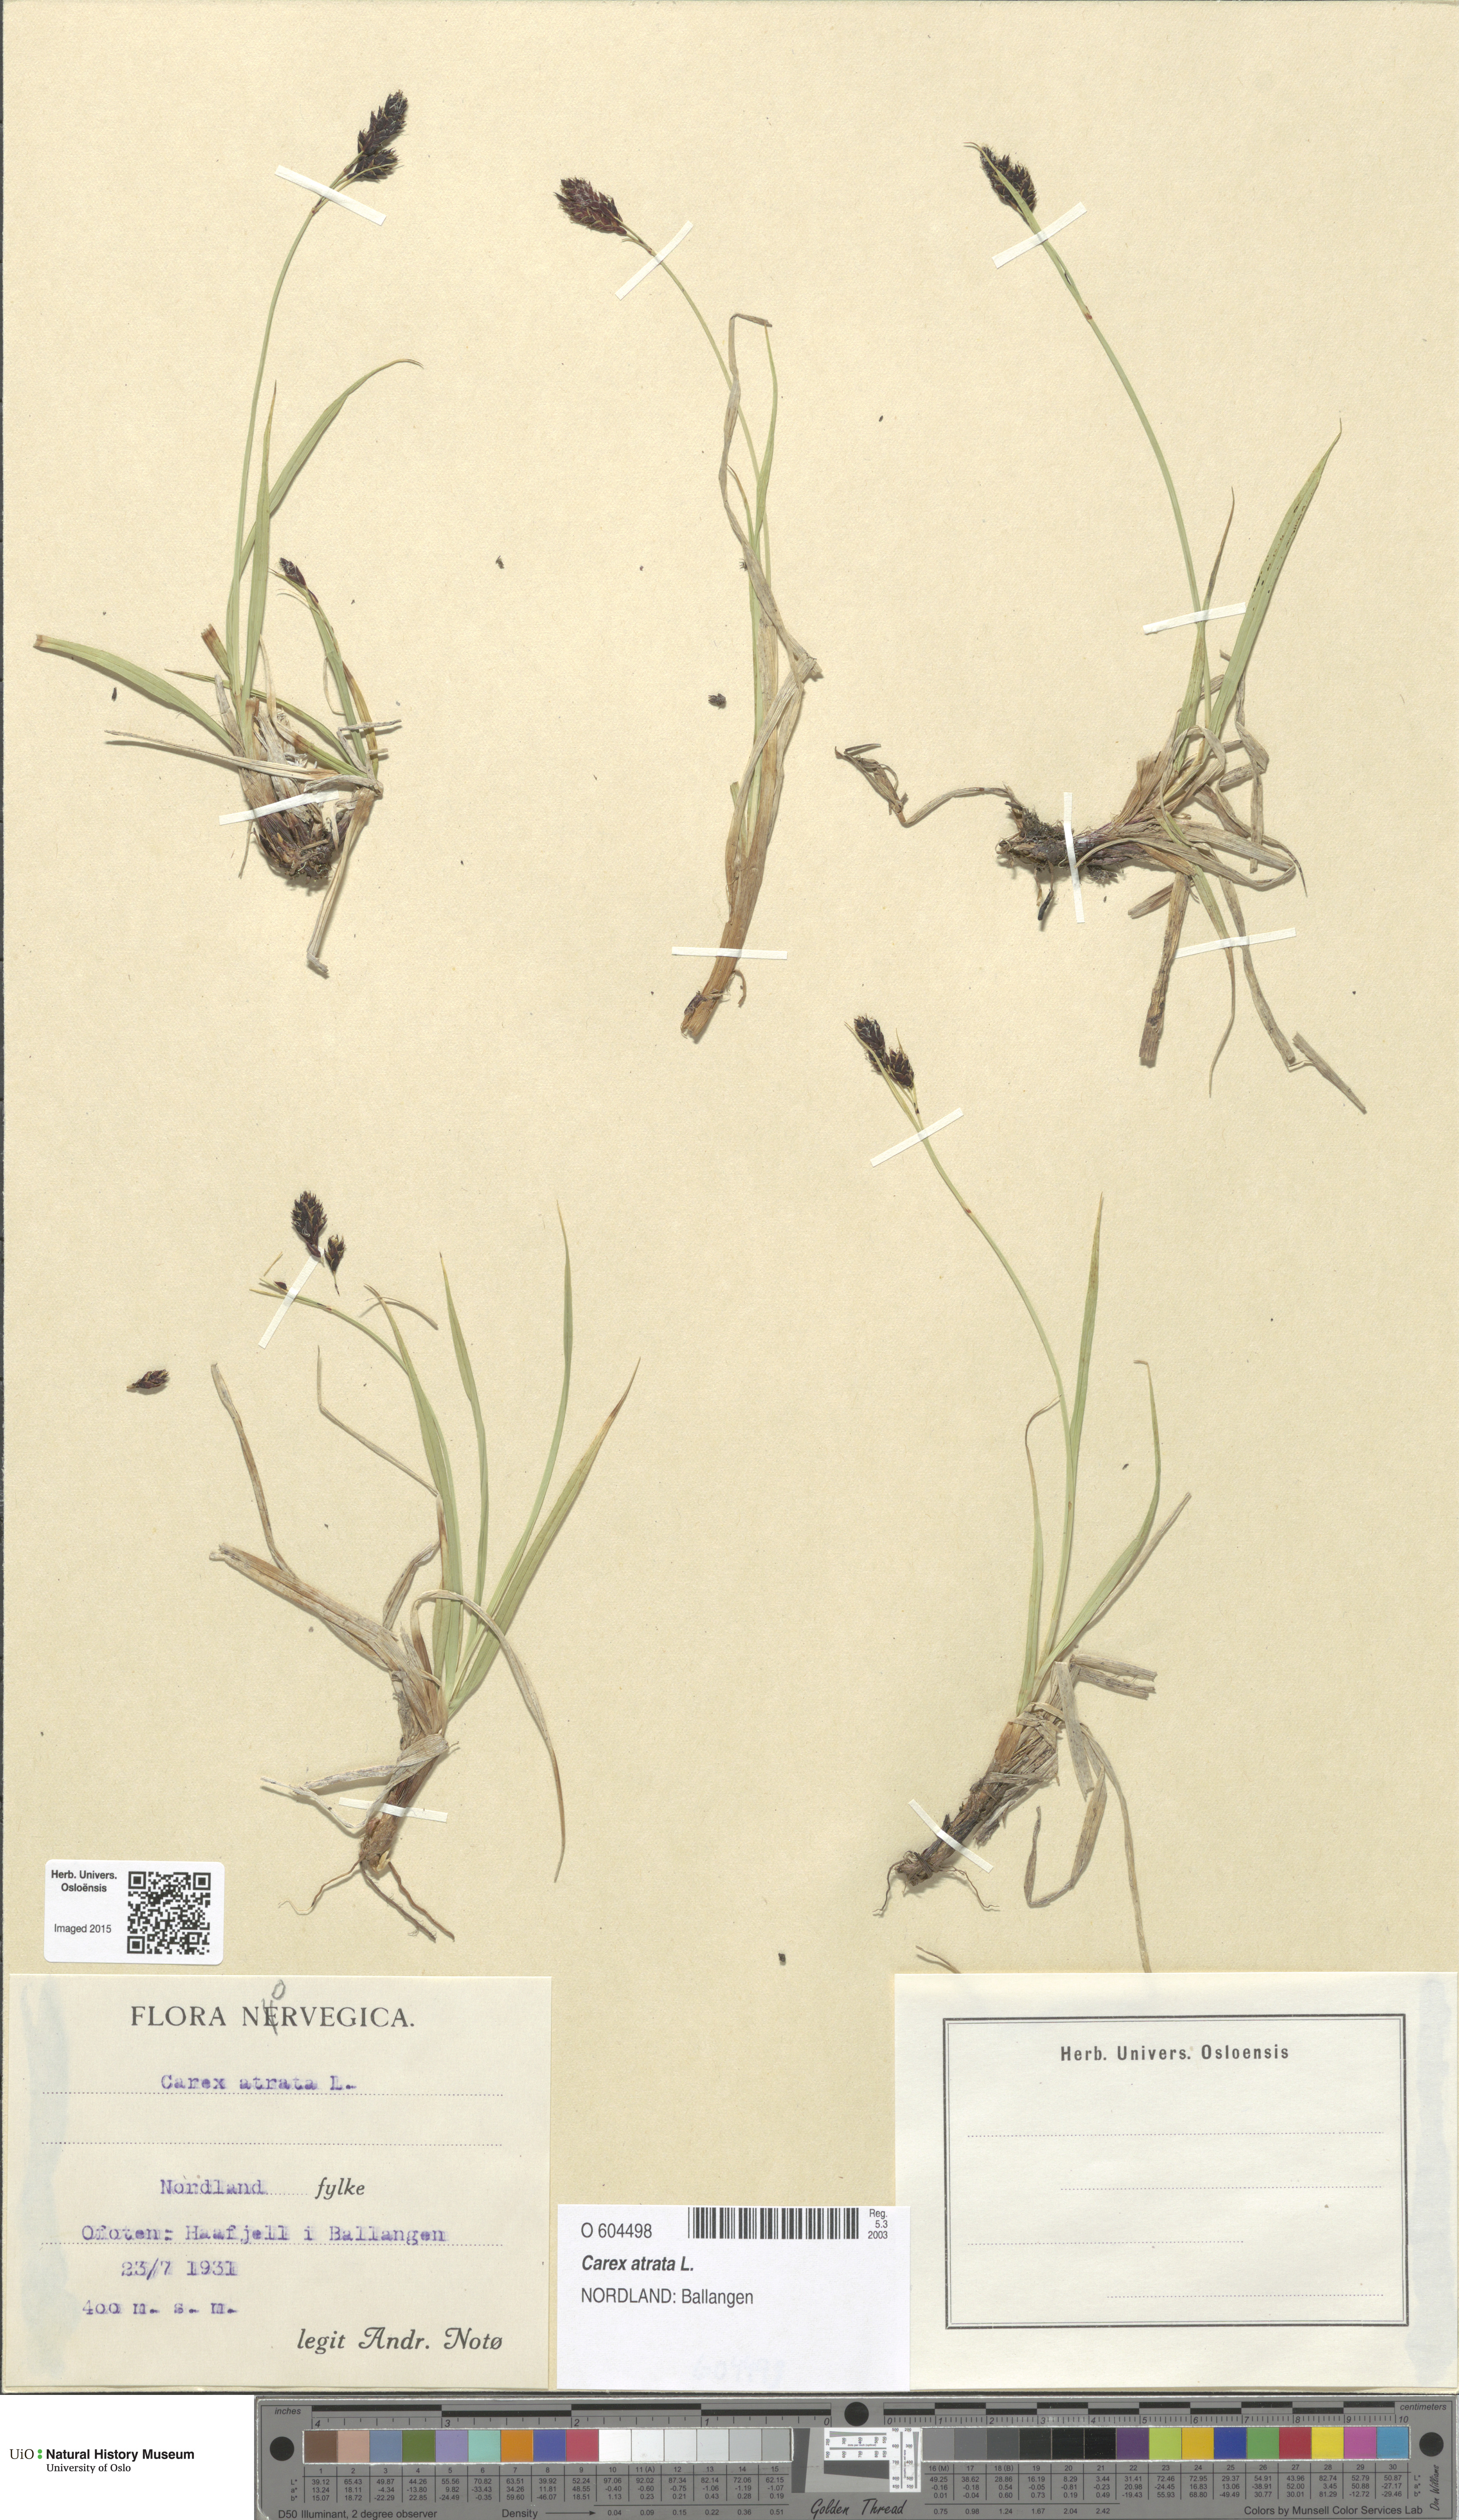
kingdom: Plantae
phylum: Tracheophyta
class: Liliopsida
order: Poales
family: Cyperaceae
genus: Carex
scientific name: Carex atrata
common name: Black alpine sedge
